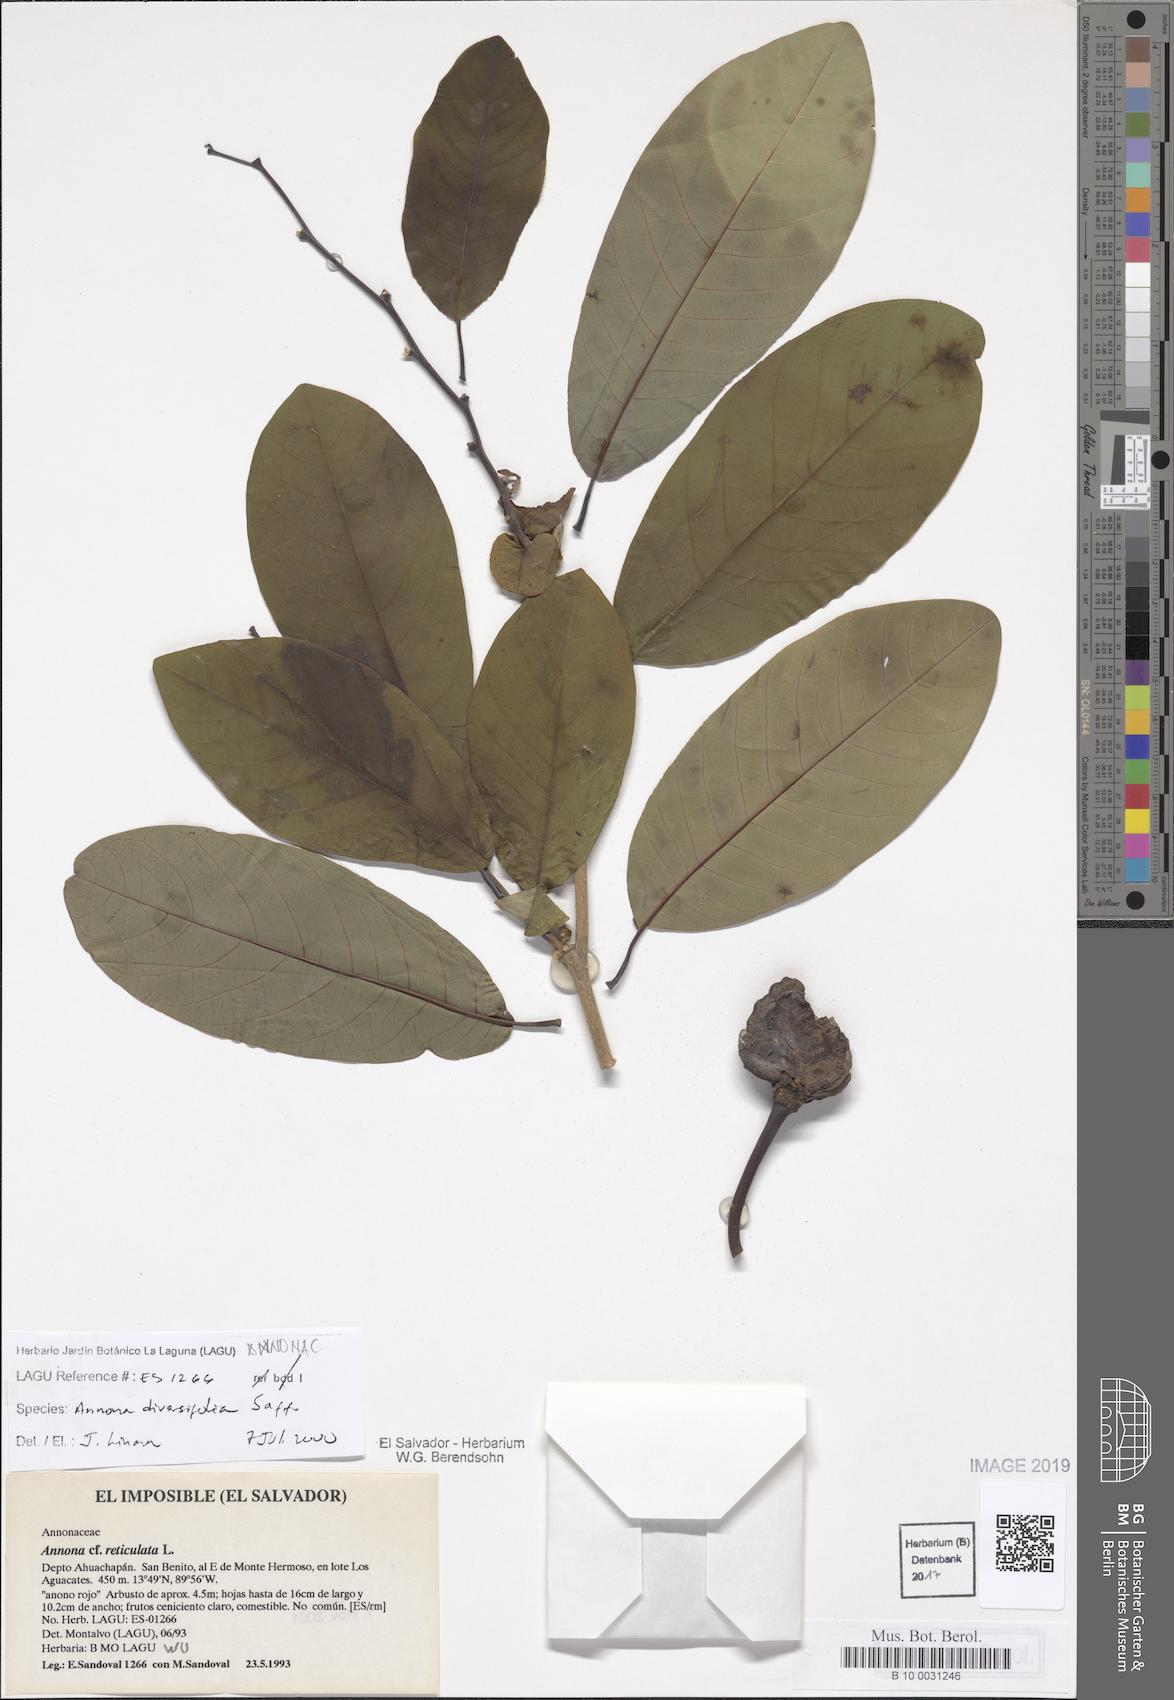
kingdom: Plantae
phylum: Tracheophyta
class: Magnoliopsida
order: Magnoliales
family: Annonaceae
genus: Annona
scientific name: Annona macroprophyllata
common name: Ilama
